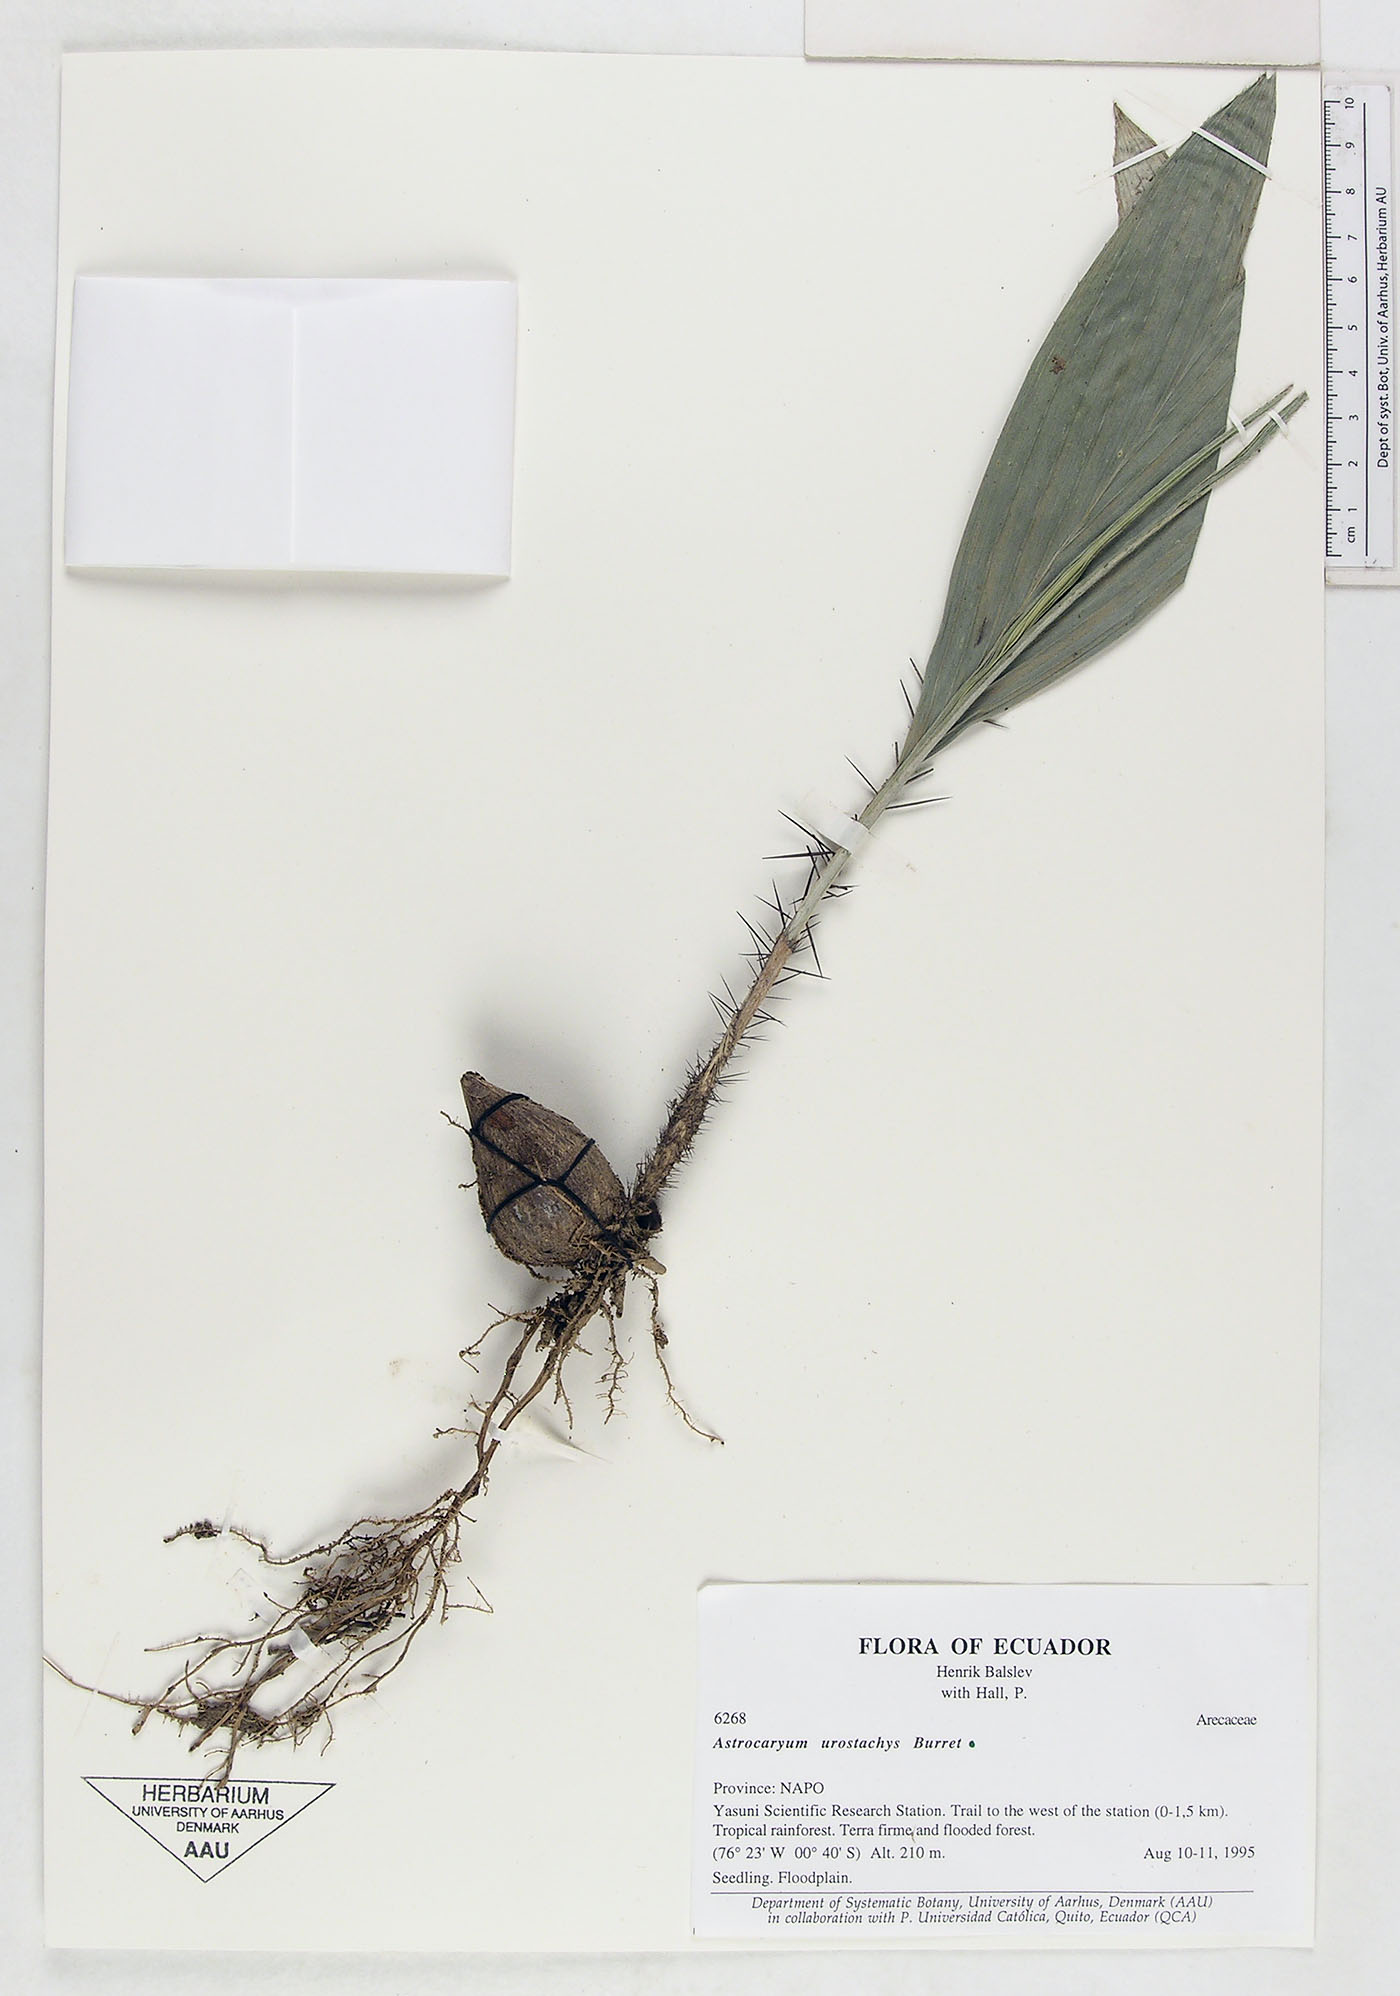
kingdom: Plantae
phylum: Tracheophyta
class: Liliopsida
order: Arecales
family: Arecaceae
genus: Astrocaryum
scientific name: Astrocaryum urostachys
